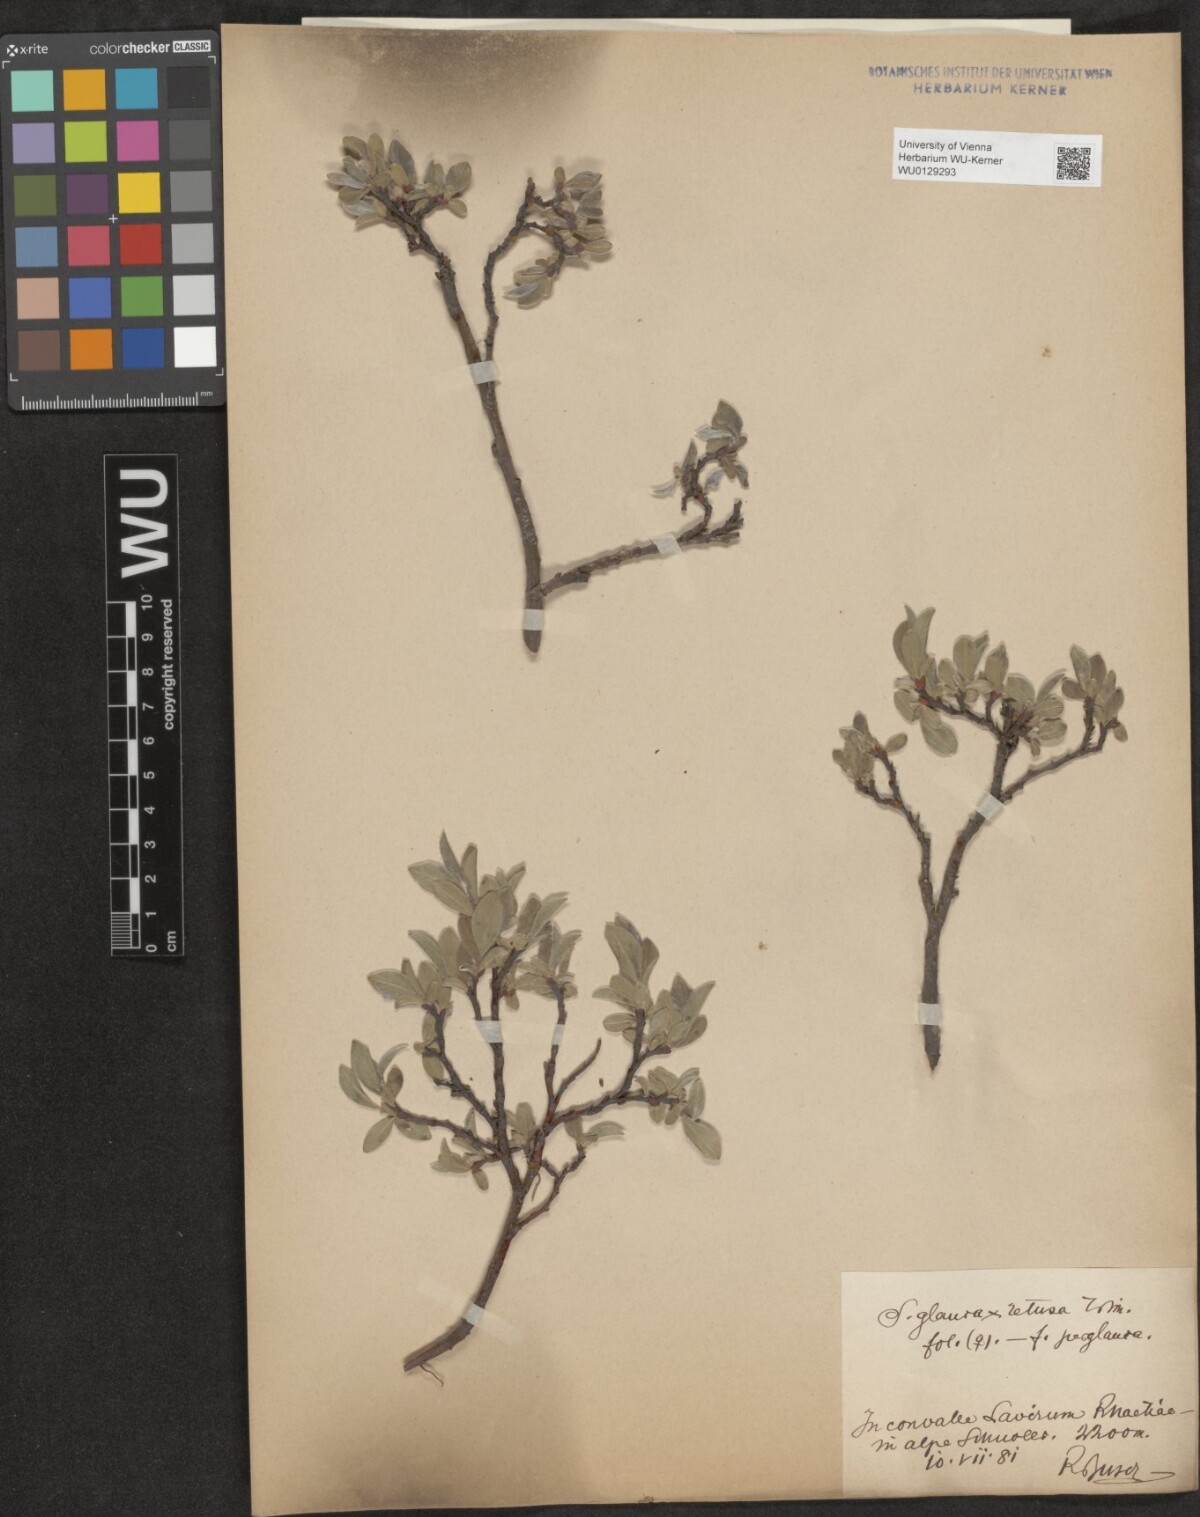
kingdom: Plantae
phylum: Tracheophyta
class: Magnoliopsida
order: Malpighiales
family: Salicaceae
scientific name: Salicaceae
